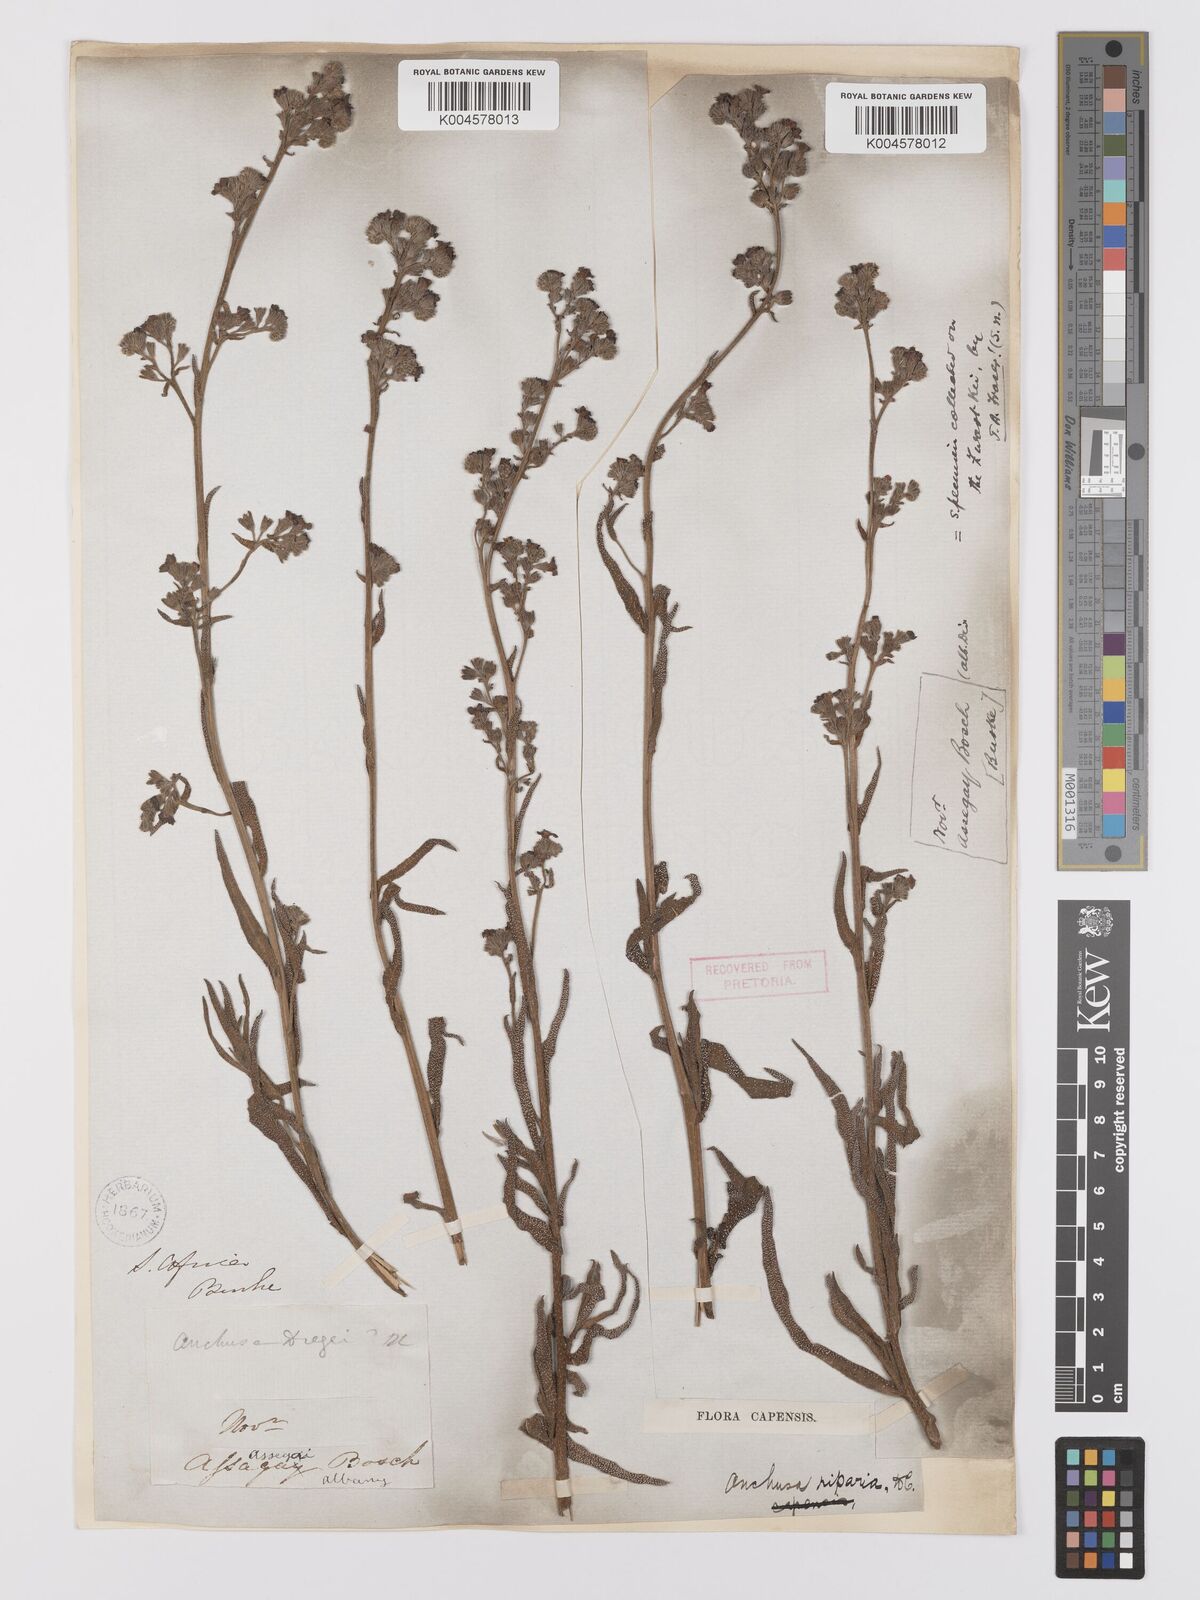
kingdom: Plantae
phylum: Tracheophyta
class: Magnoliopsida
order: Boraginales
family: Boraginaceae
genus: Anchusa
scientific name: Anchusa capensis
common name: Cape bugloss
